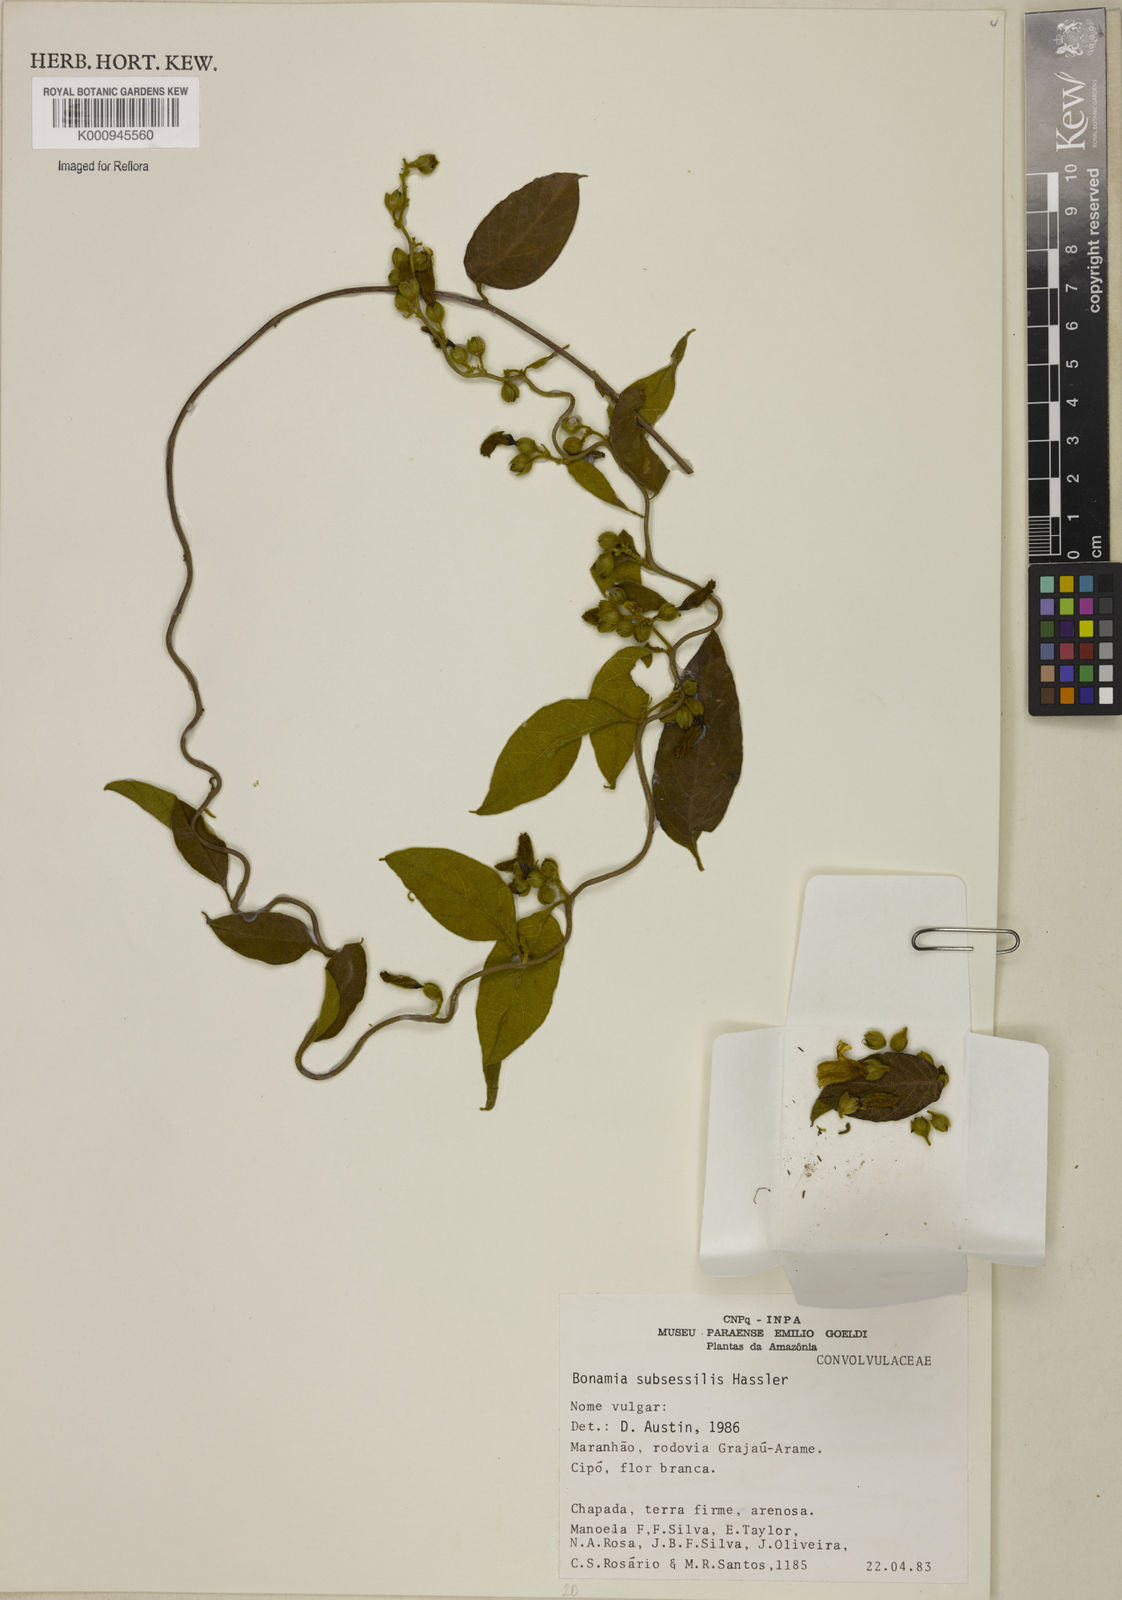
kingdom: Plantae
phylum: Tracheophyta
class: Magnoliopsida
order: Solanales
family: Convolvulaceae
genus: Bonamia
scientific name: Bonamia subsessilis
